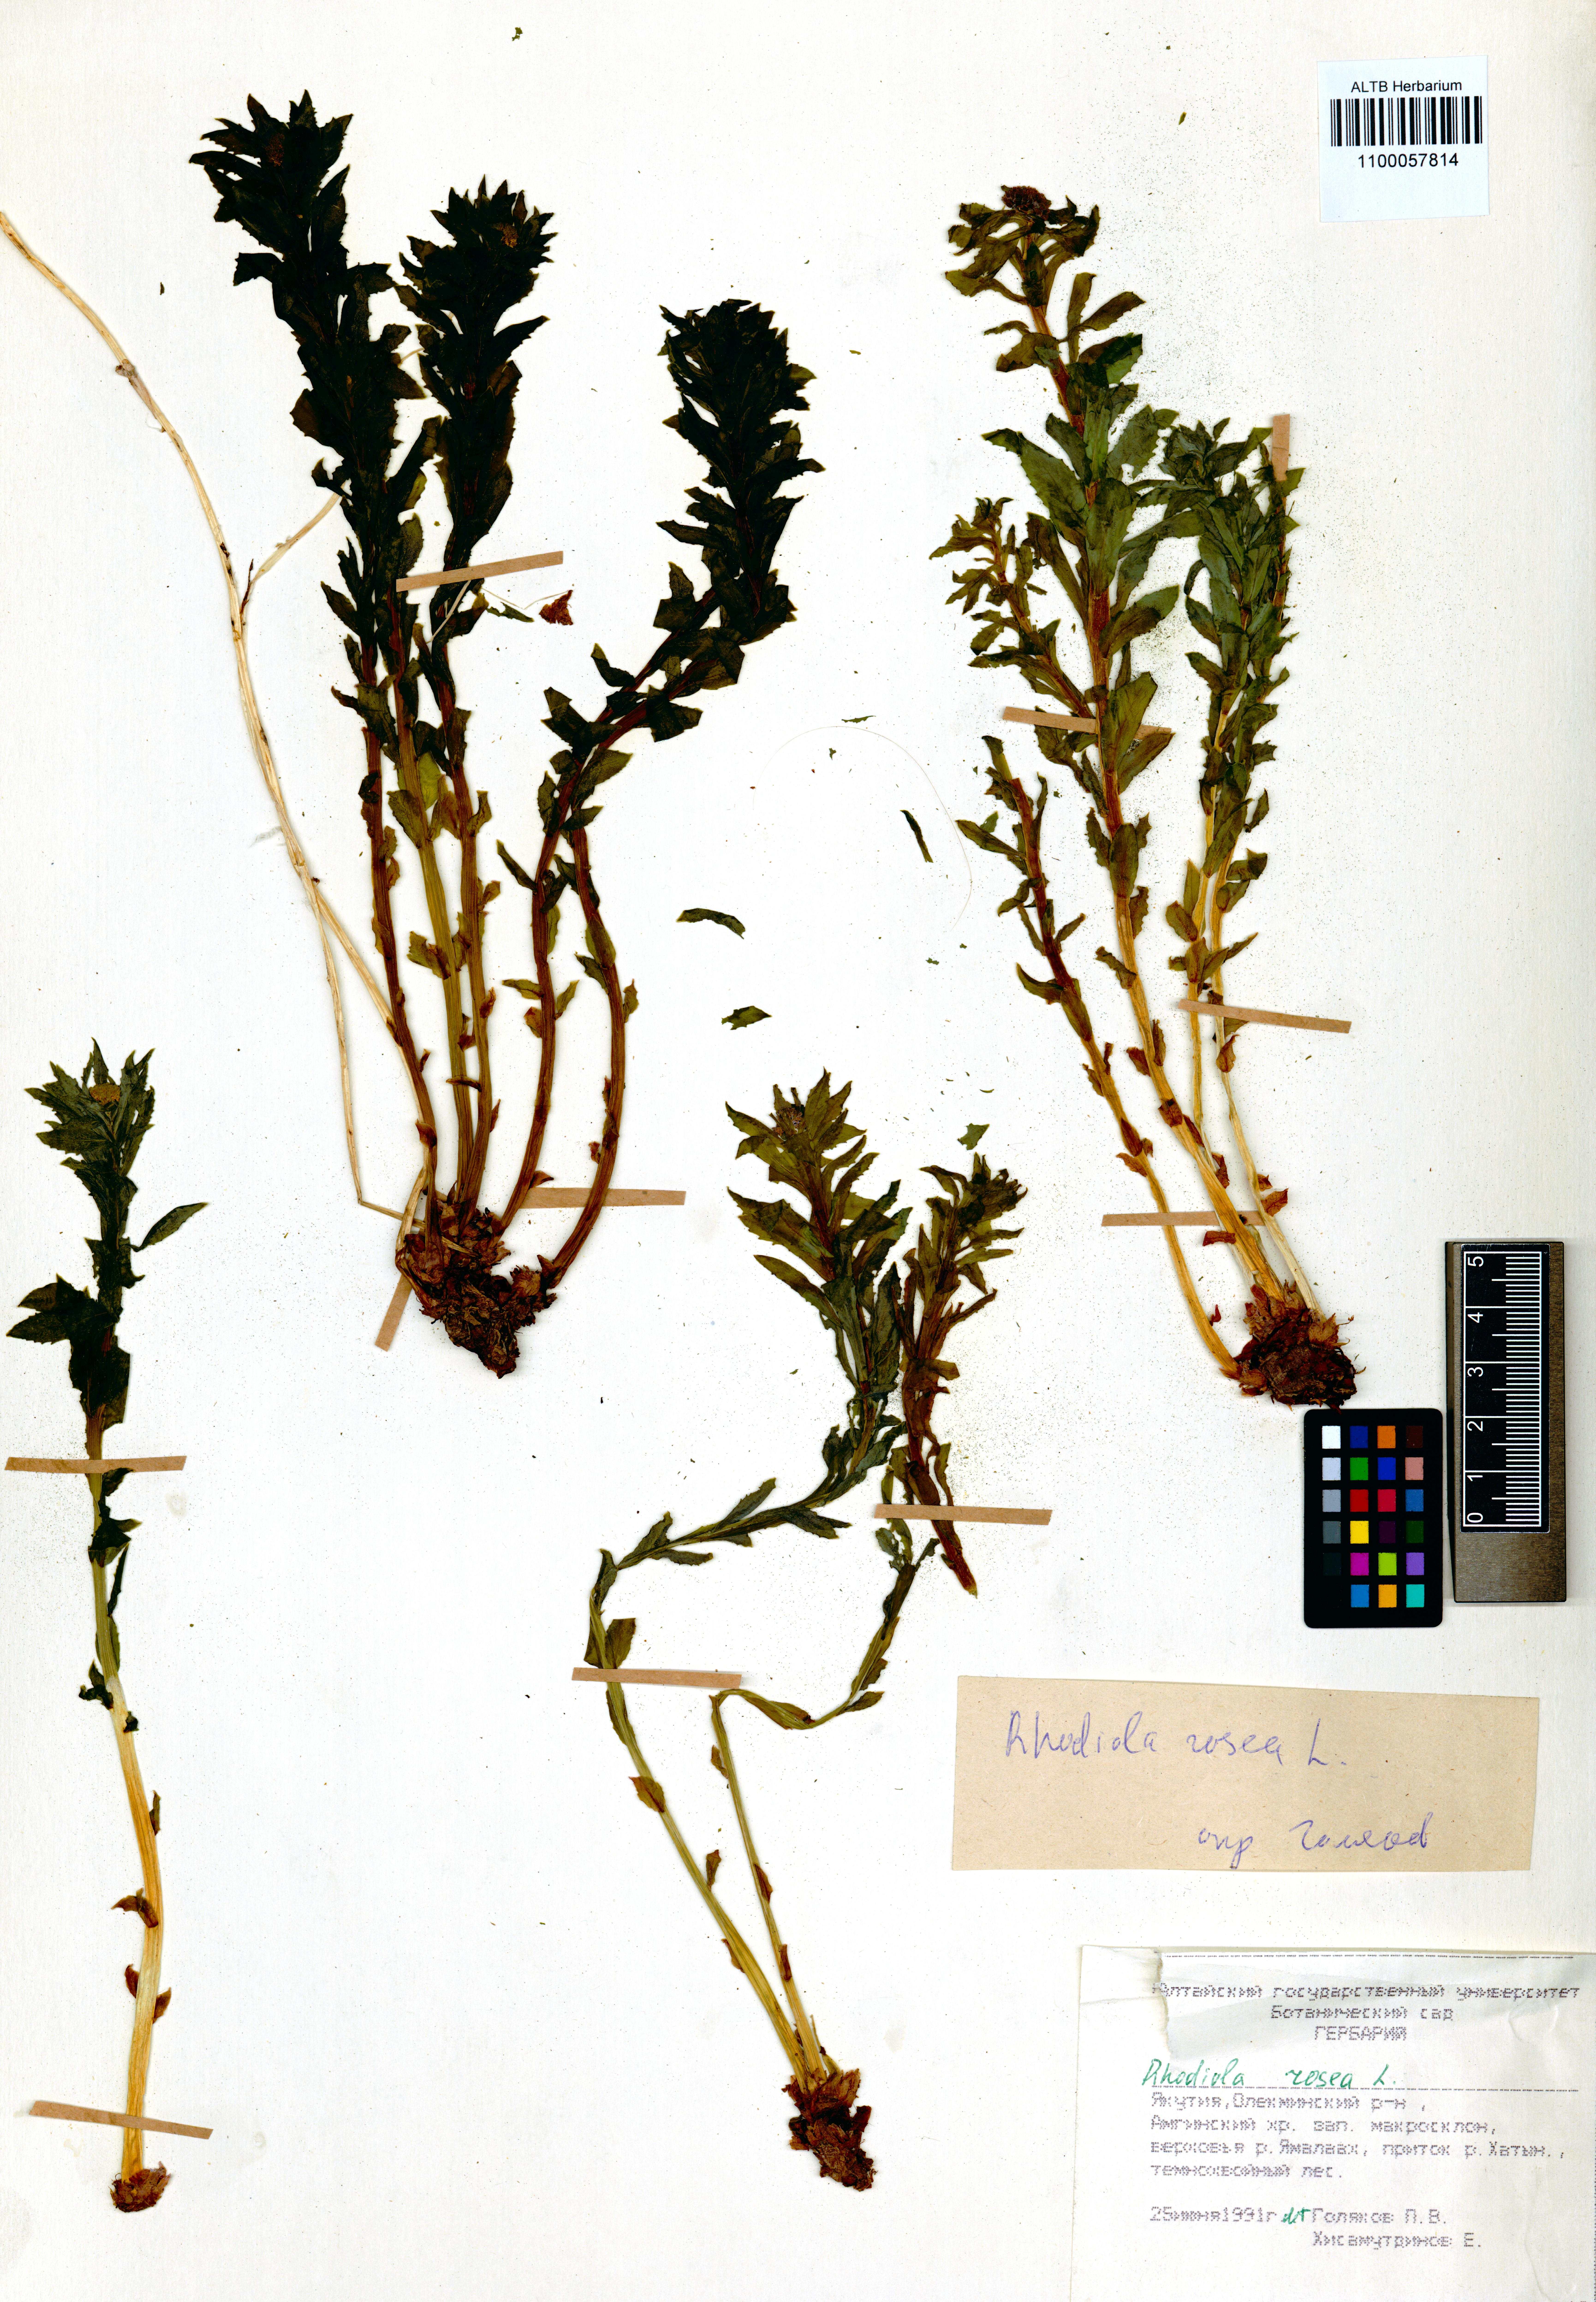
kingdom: Plantae
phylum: Tracheophyta
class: Magnoliopsida
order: Saxifragales
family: Crassulaceae
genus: Rhodiola
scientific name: Rhodiola rosea
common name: Roseroot
